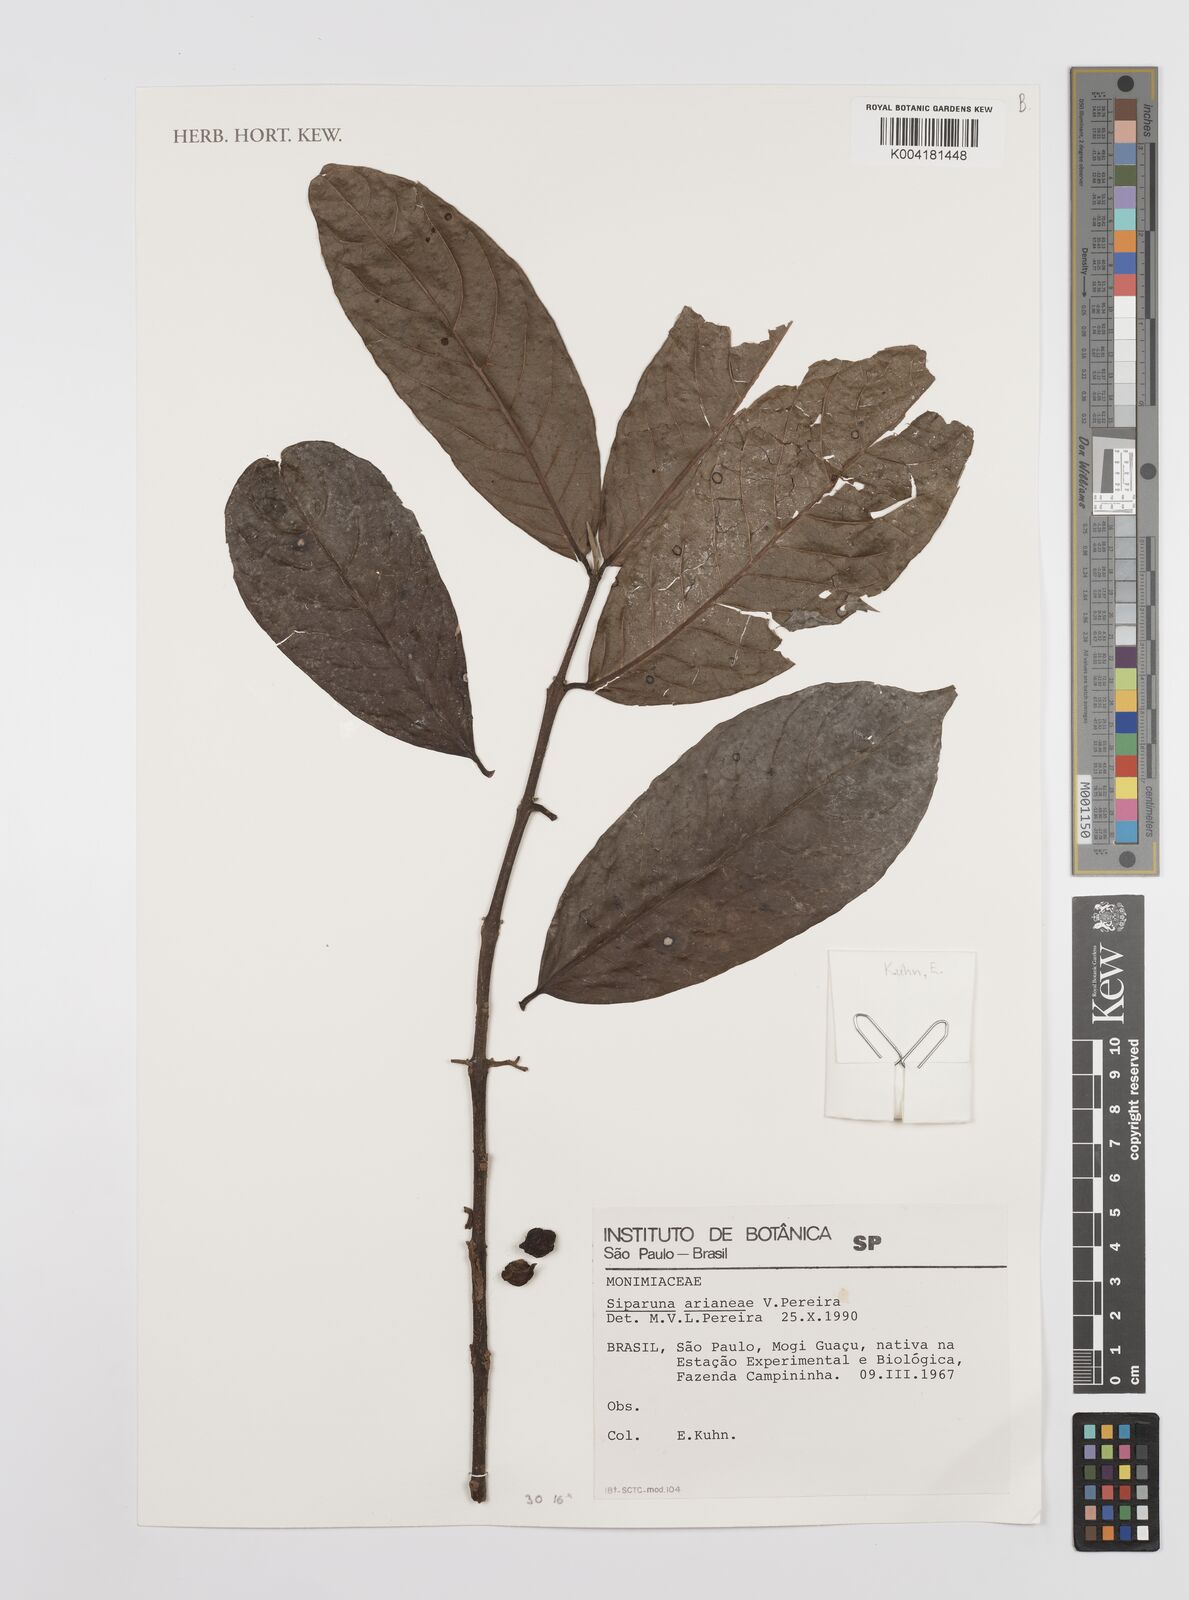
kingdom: Plantae
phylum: Tracheophyta
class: Magnoliopsida
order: Laurales
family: Siparunaceae
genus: Siparuna
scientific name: Siparuna guianensis
